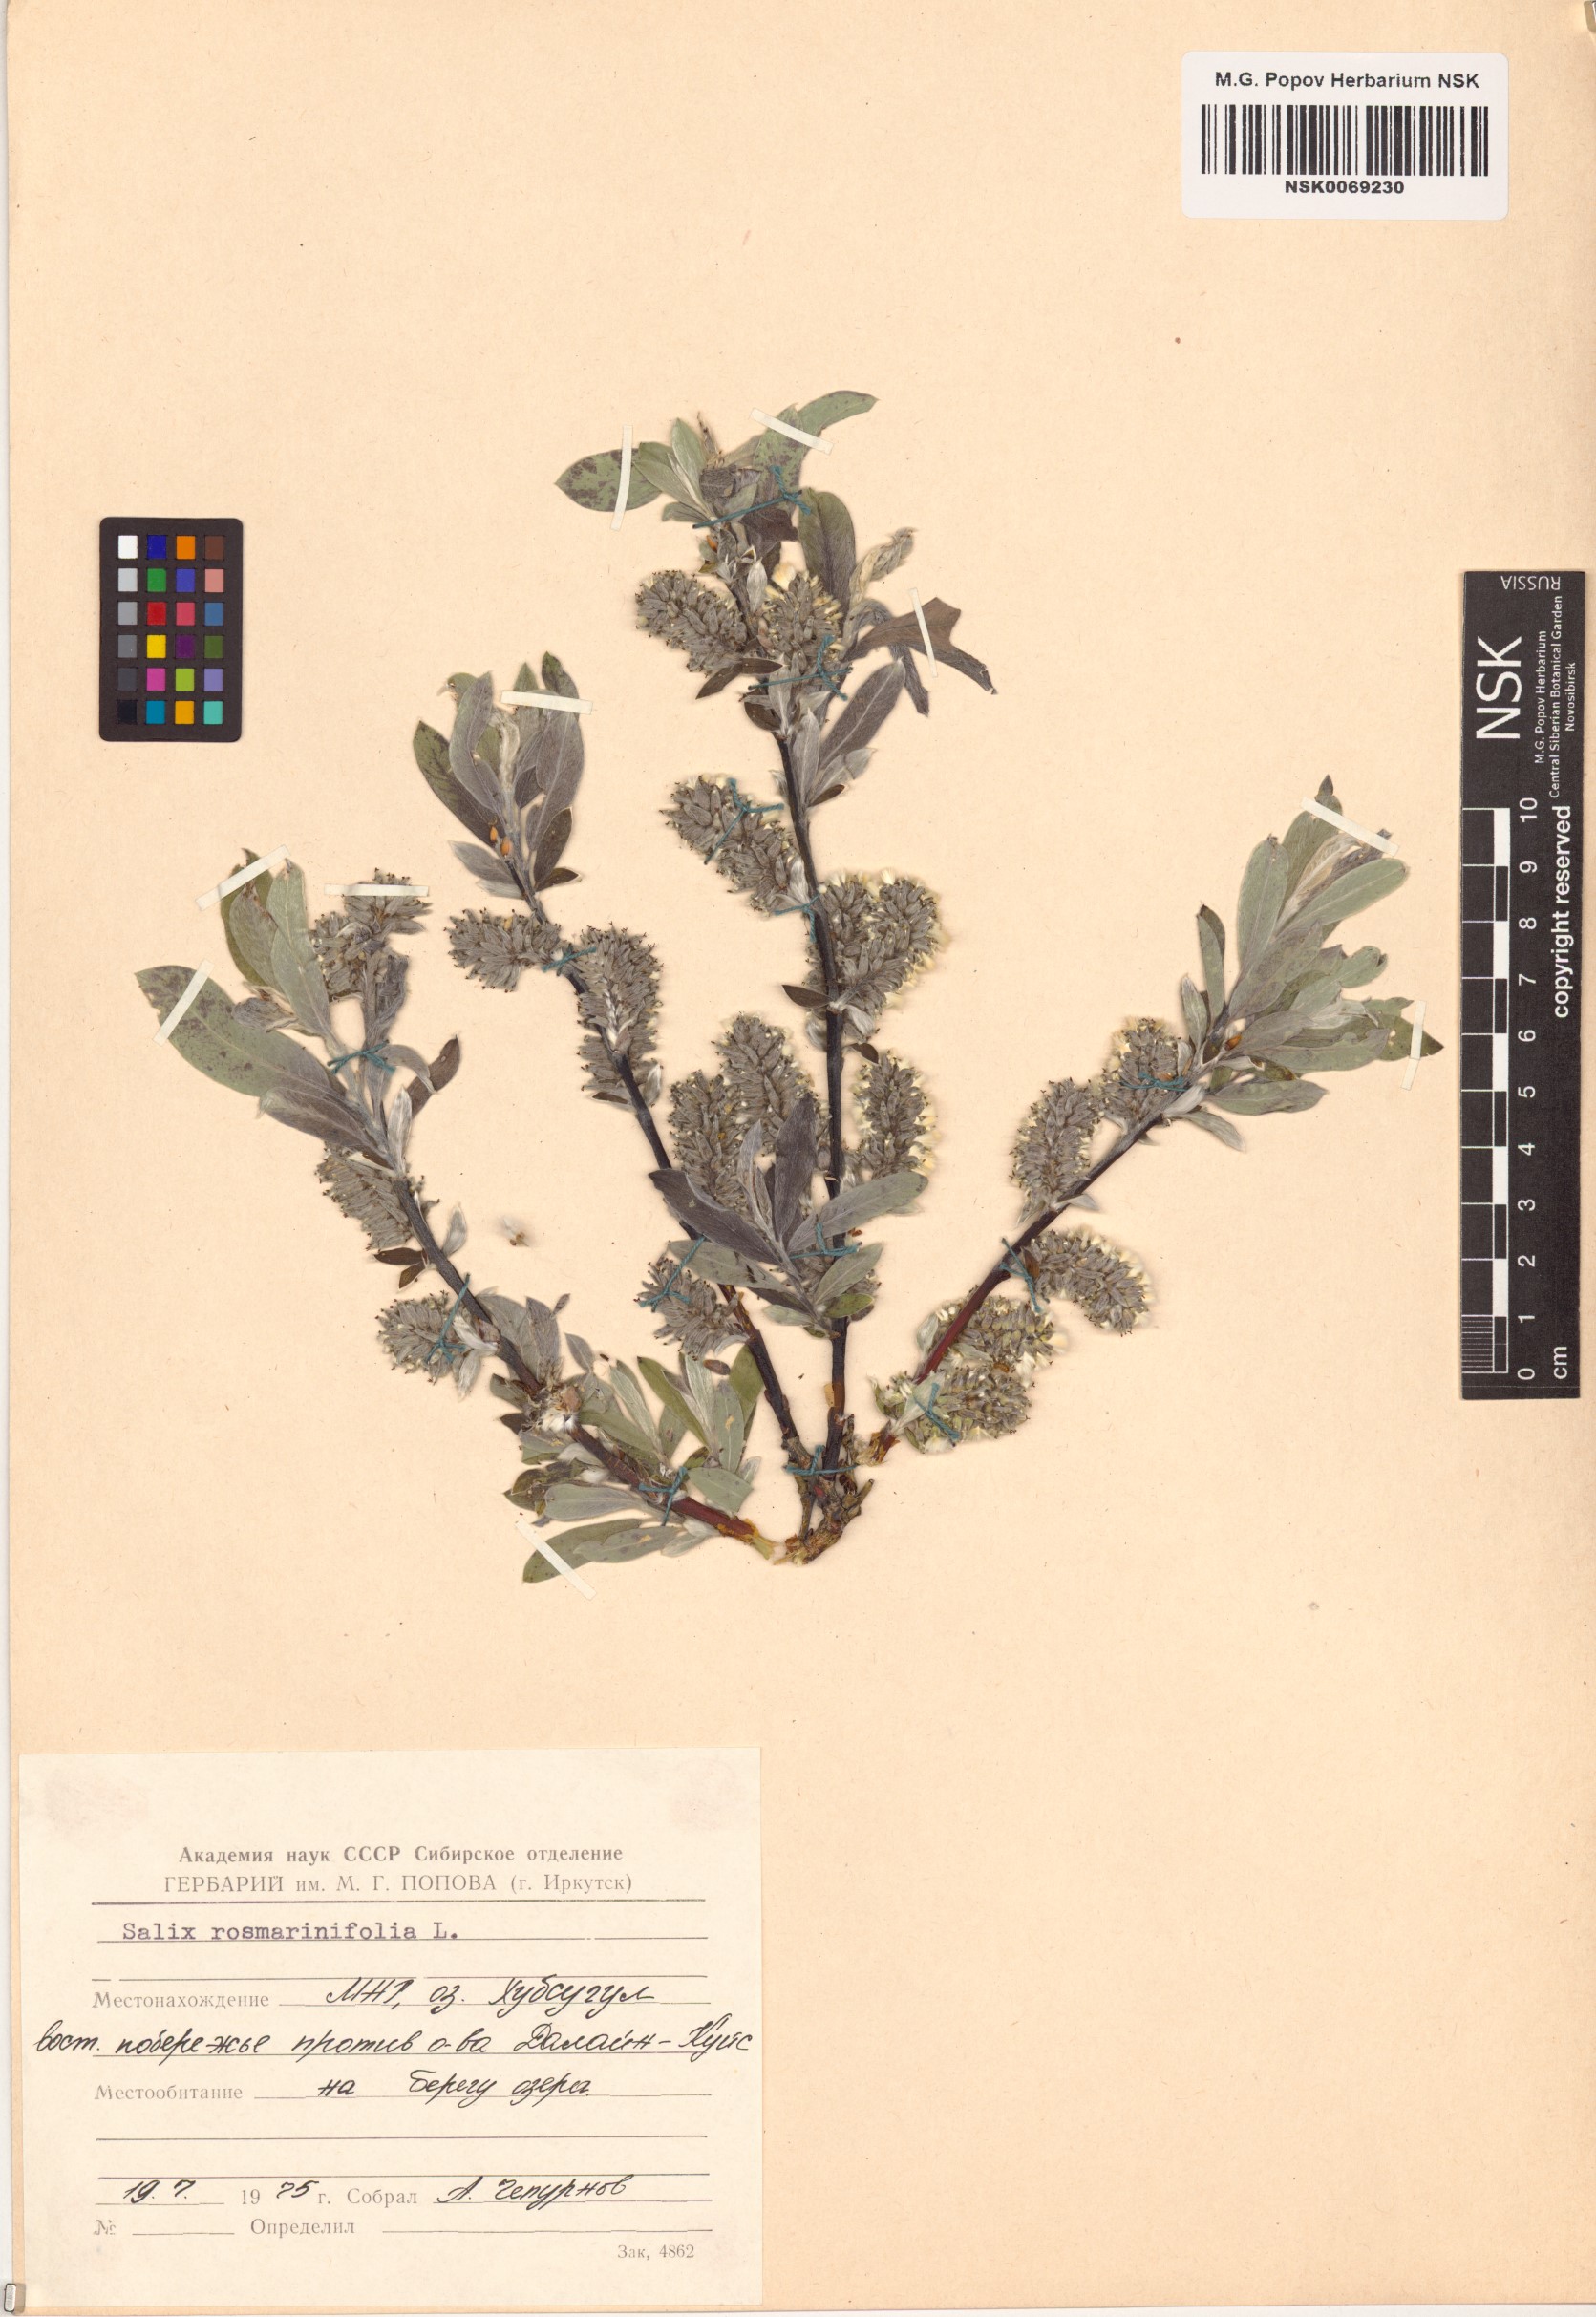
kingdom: Plantae
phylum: Tracheophyta
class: Magnoliopsida
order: Malpighiales
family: Salicaceae
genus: Salix
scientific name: Salix rosmarinifolia
